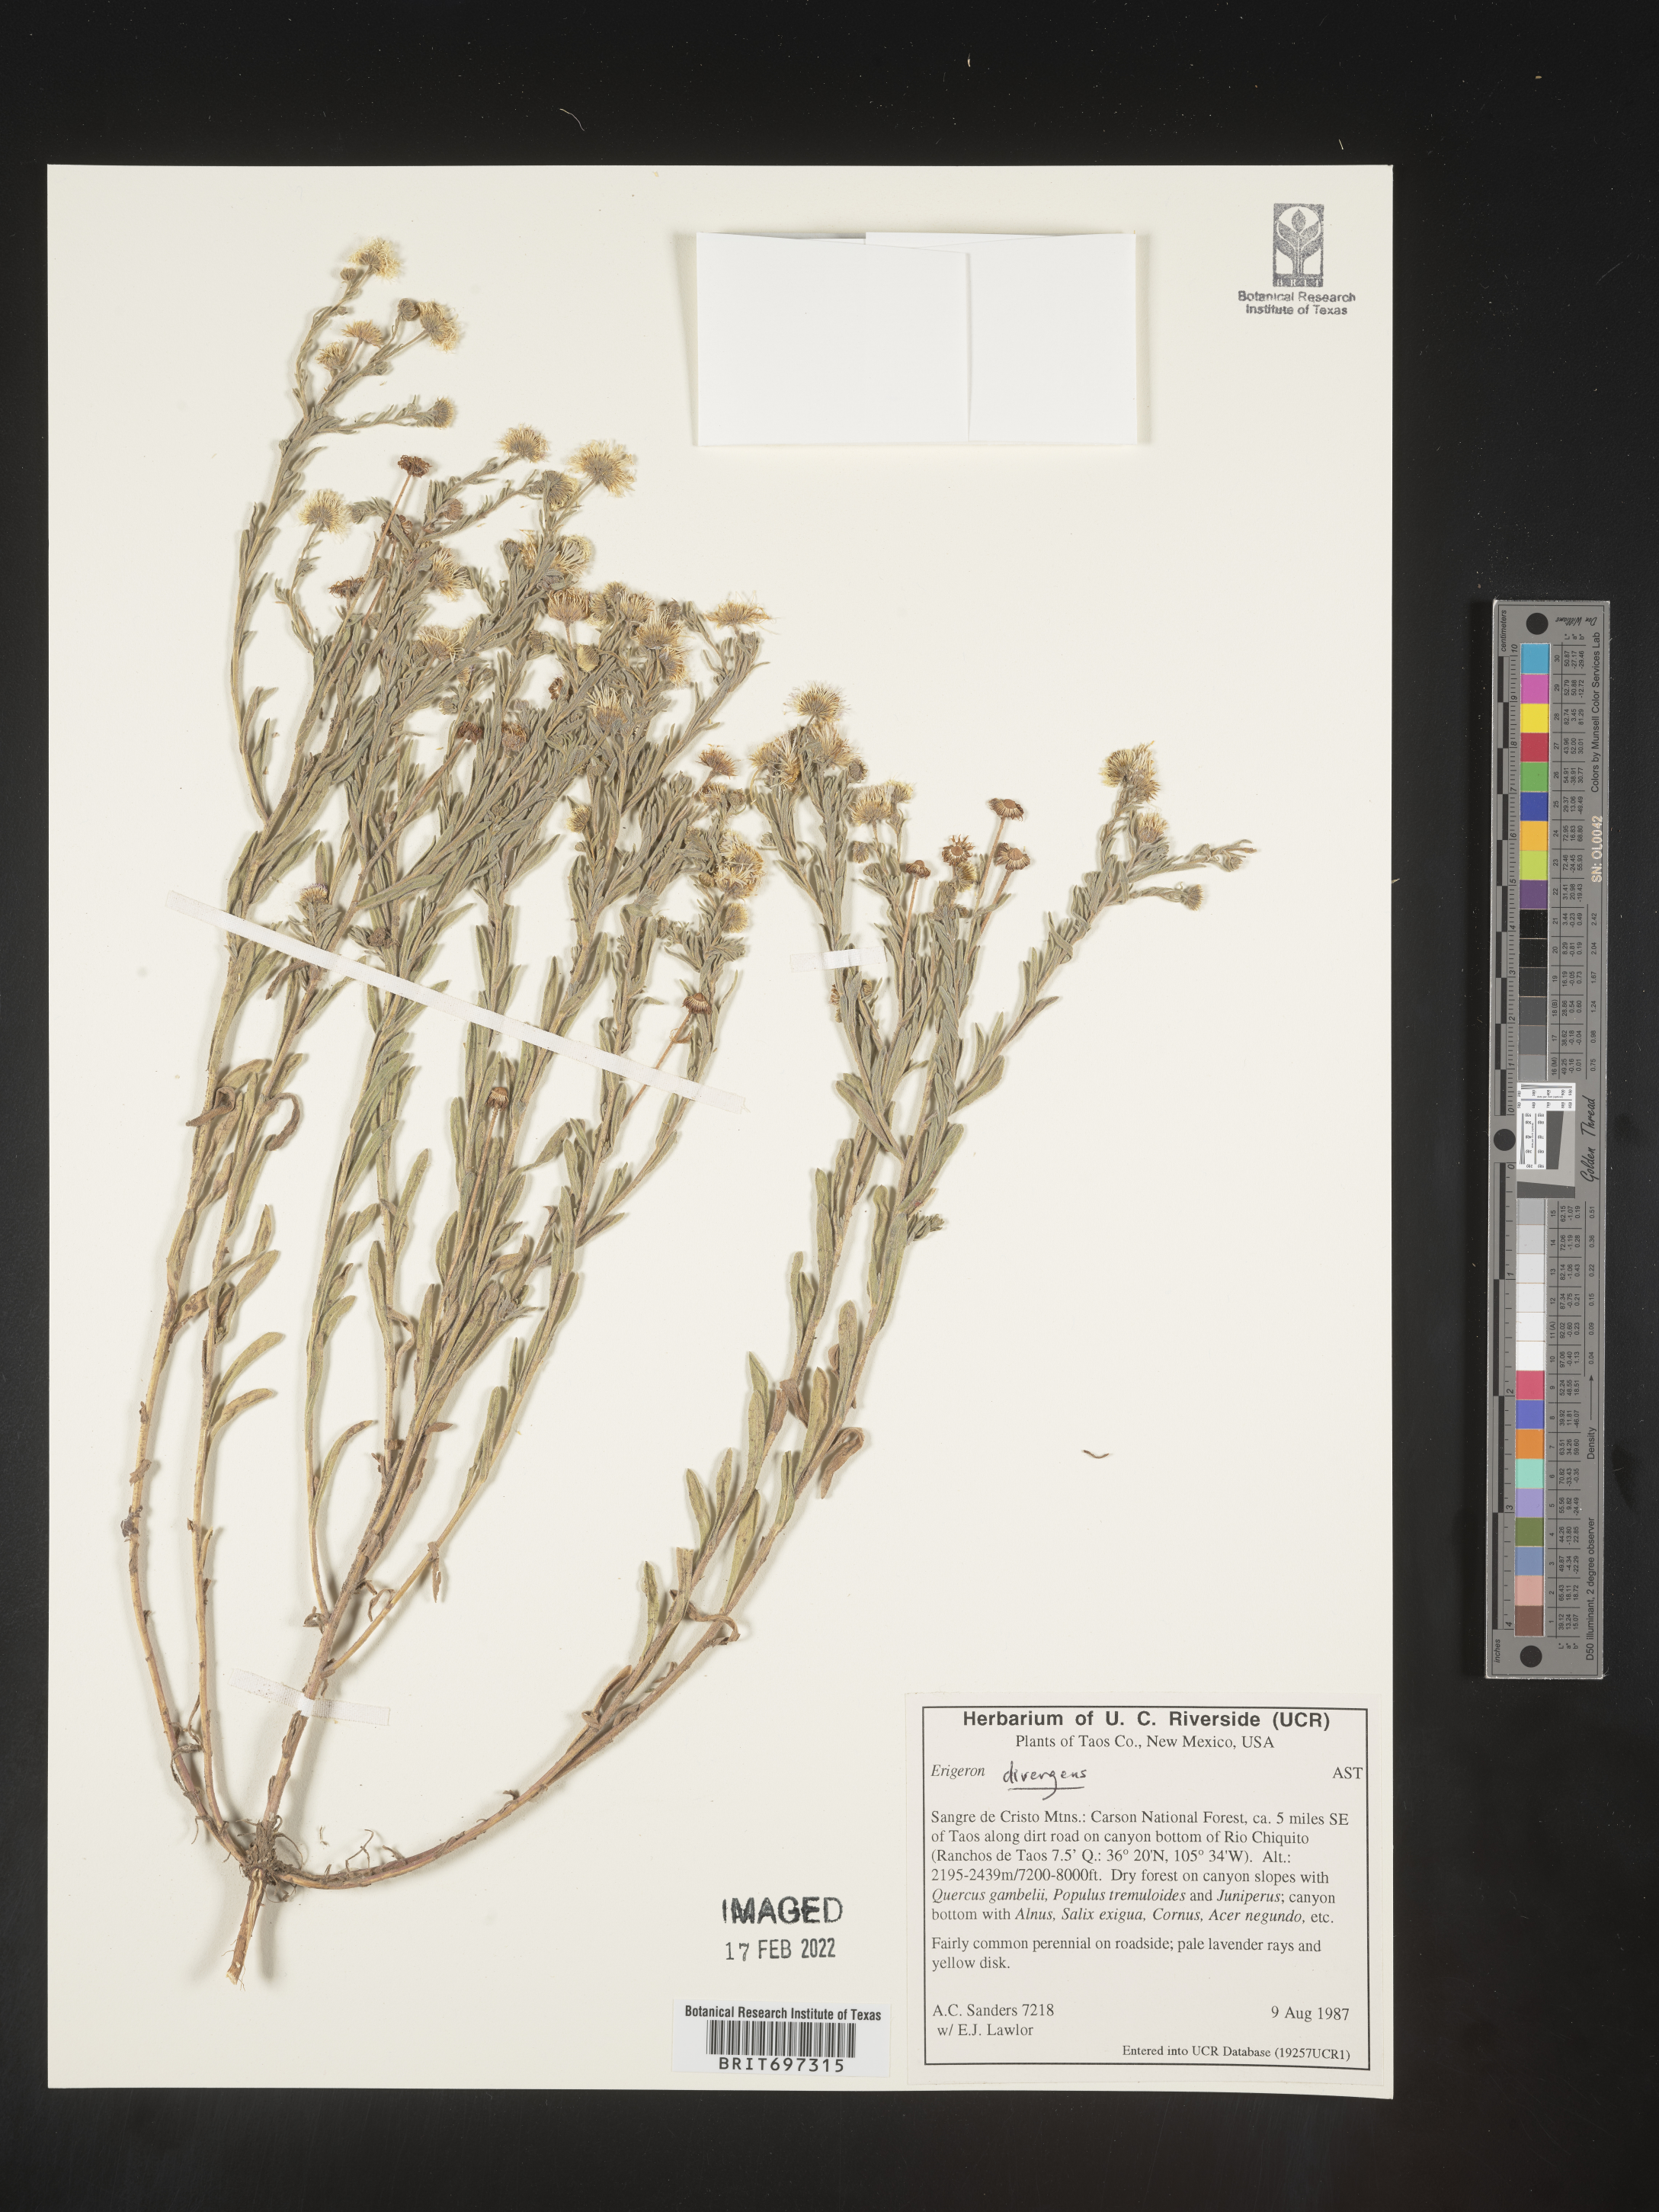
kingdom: Plantae
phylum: Tracheophyta
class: Magnoliopsida
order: Asterales
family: Asteraceae
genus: Erigeron
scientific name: Erigeron divergens
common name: Diffuse fleabane
